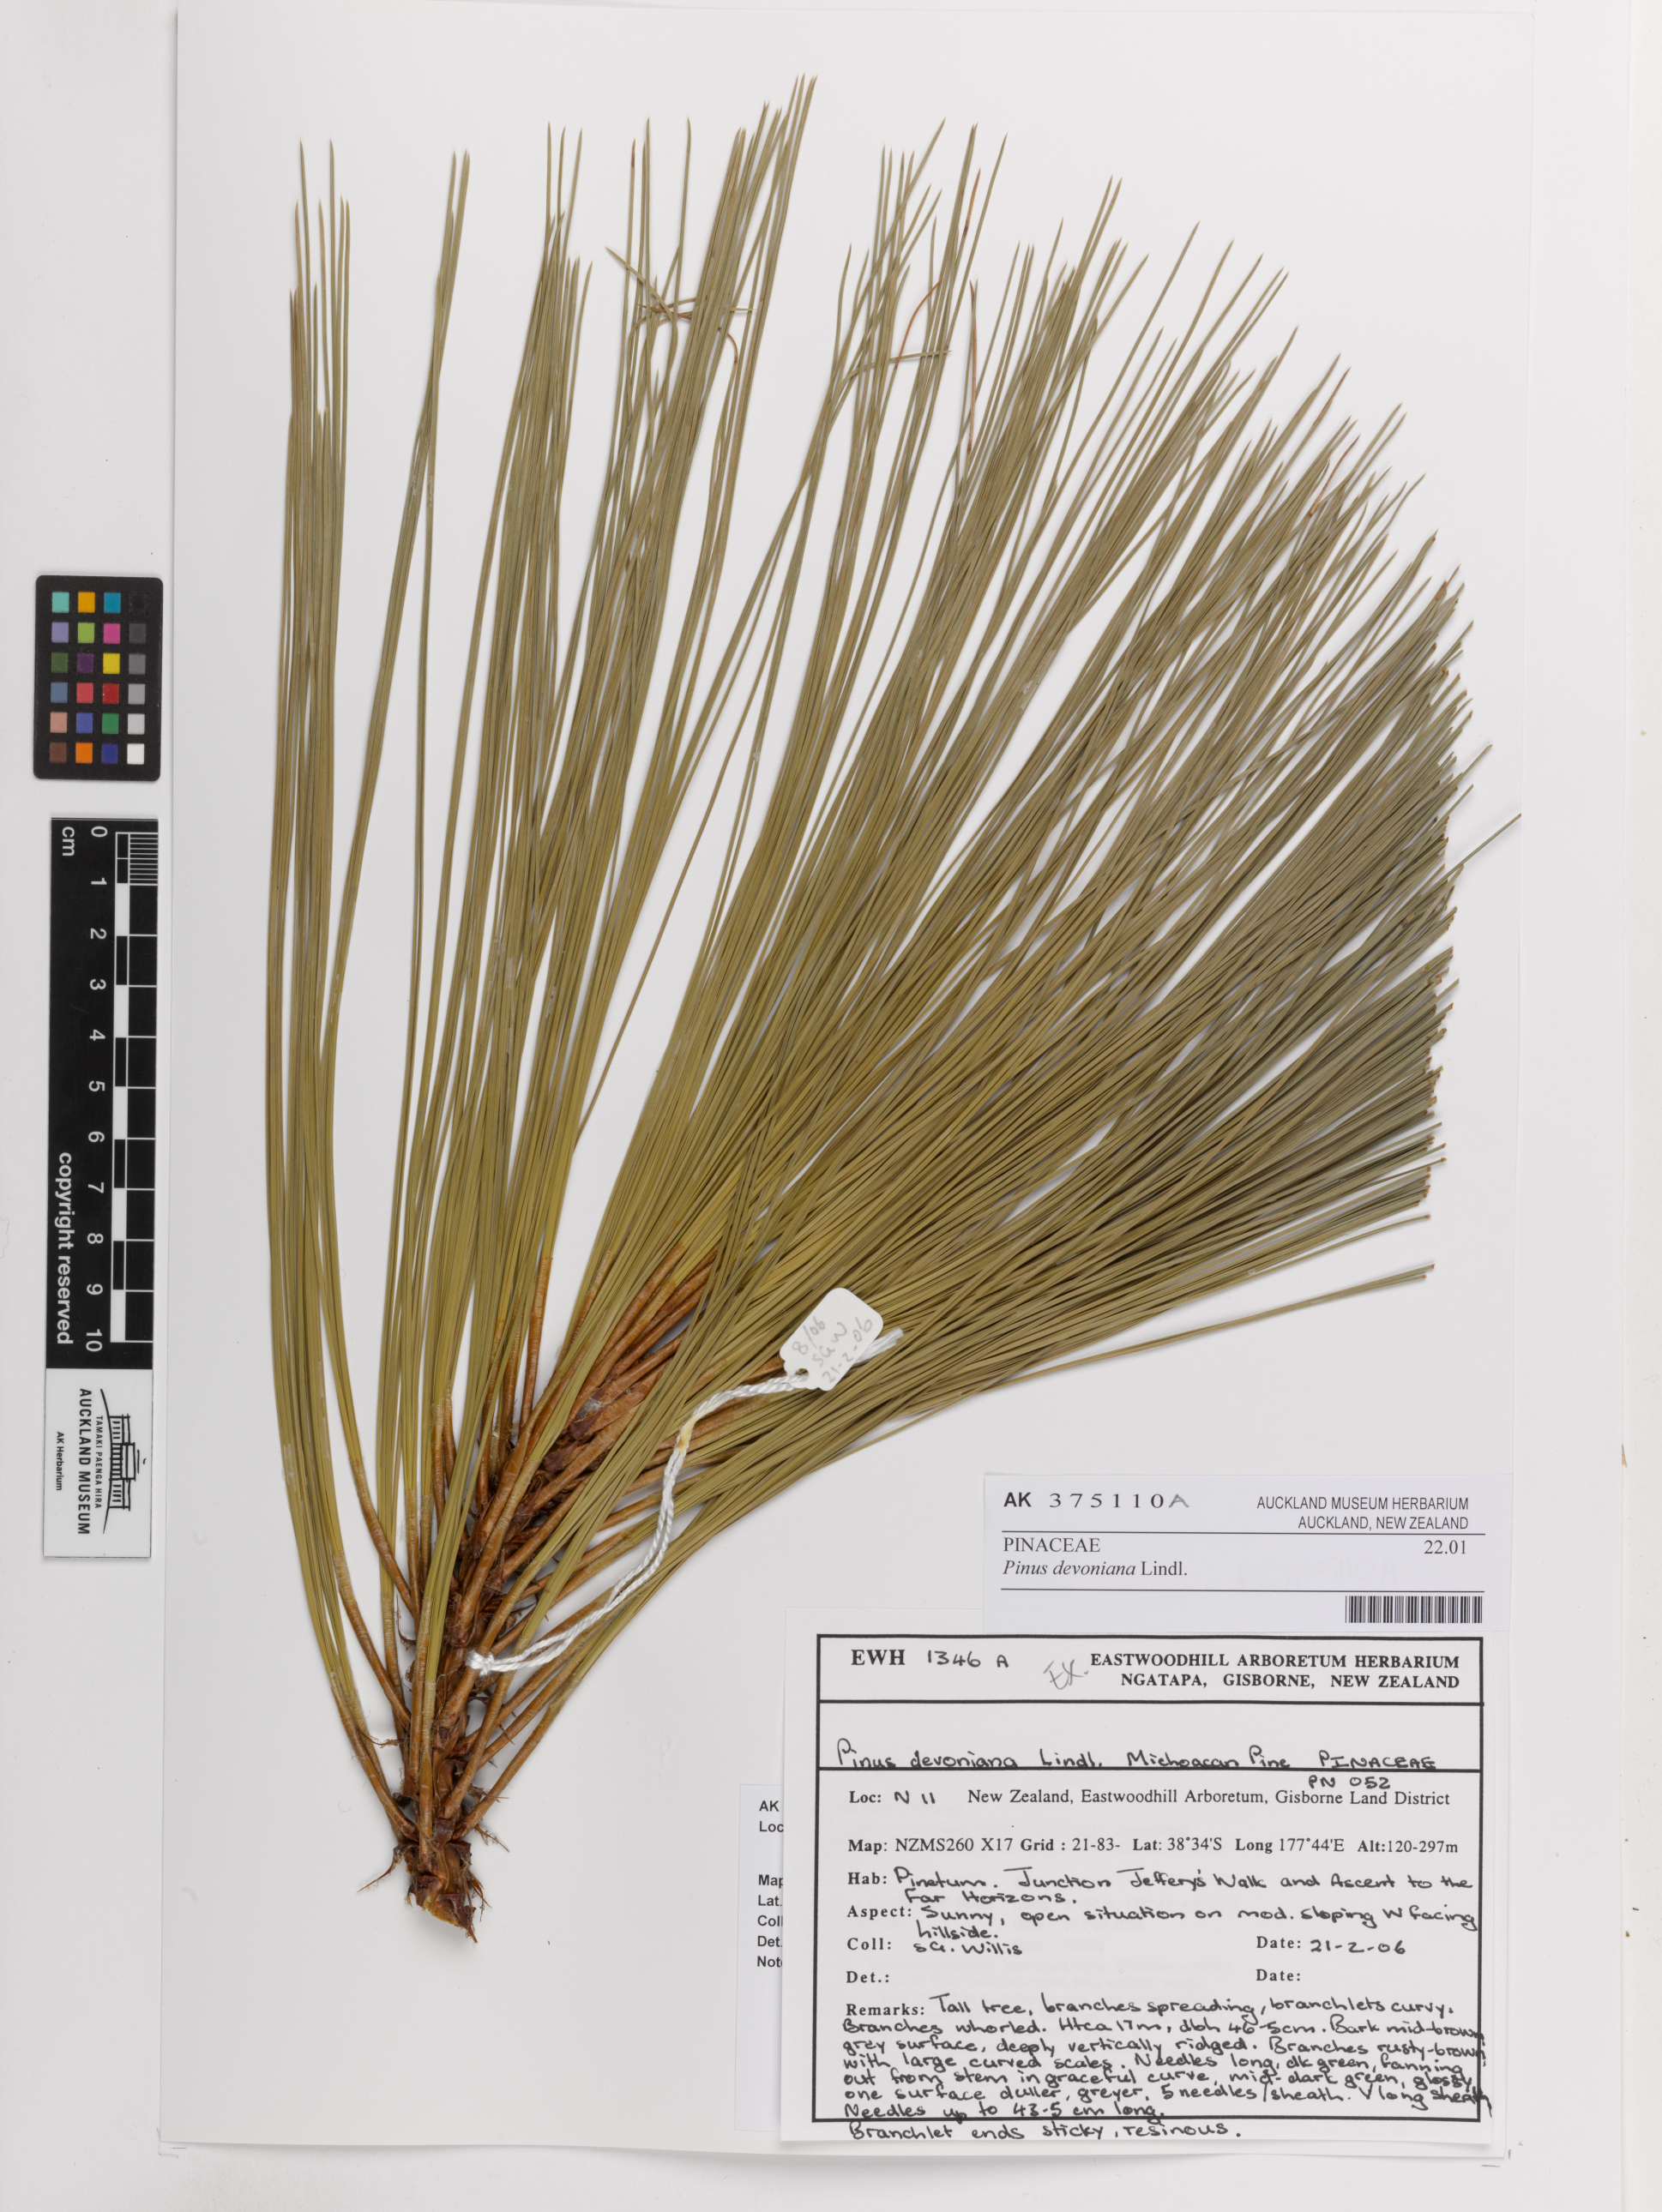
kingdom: Plantae
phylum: Tracheophyta
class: Pinopsida
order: Pinales
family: Pinaceae
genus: Pinus
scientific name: Pinus devoniana
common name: Michoacan pine
